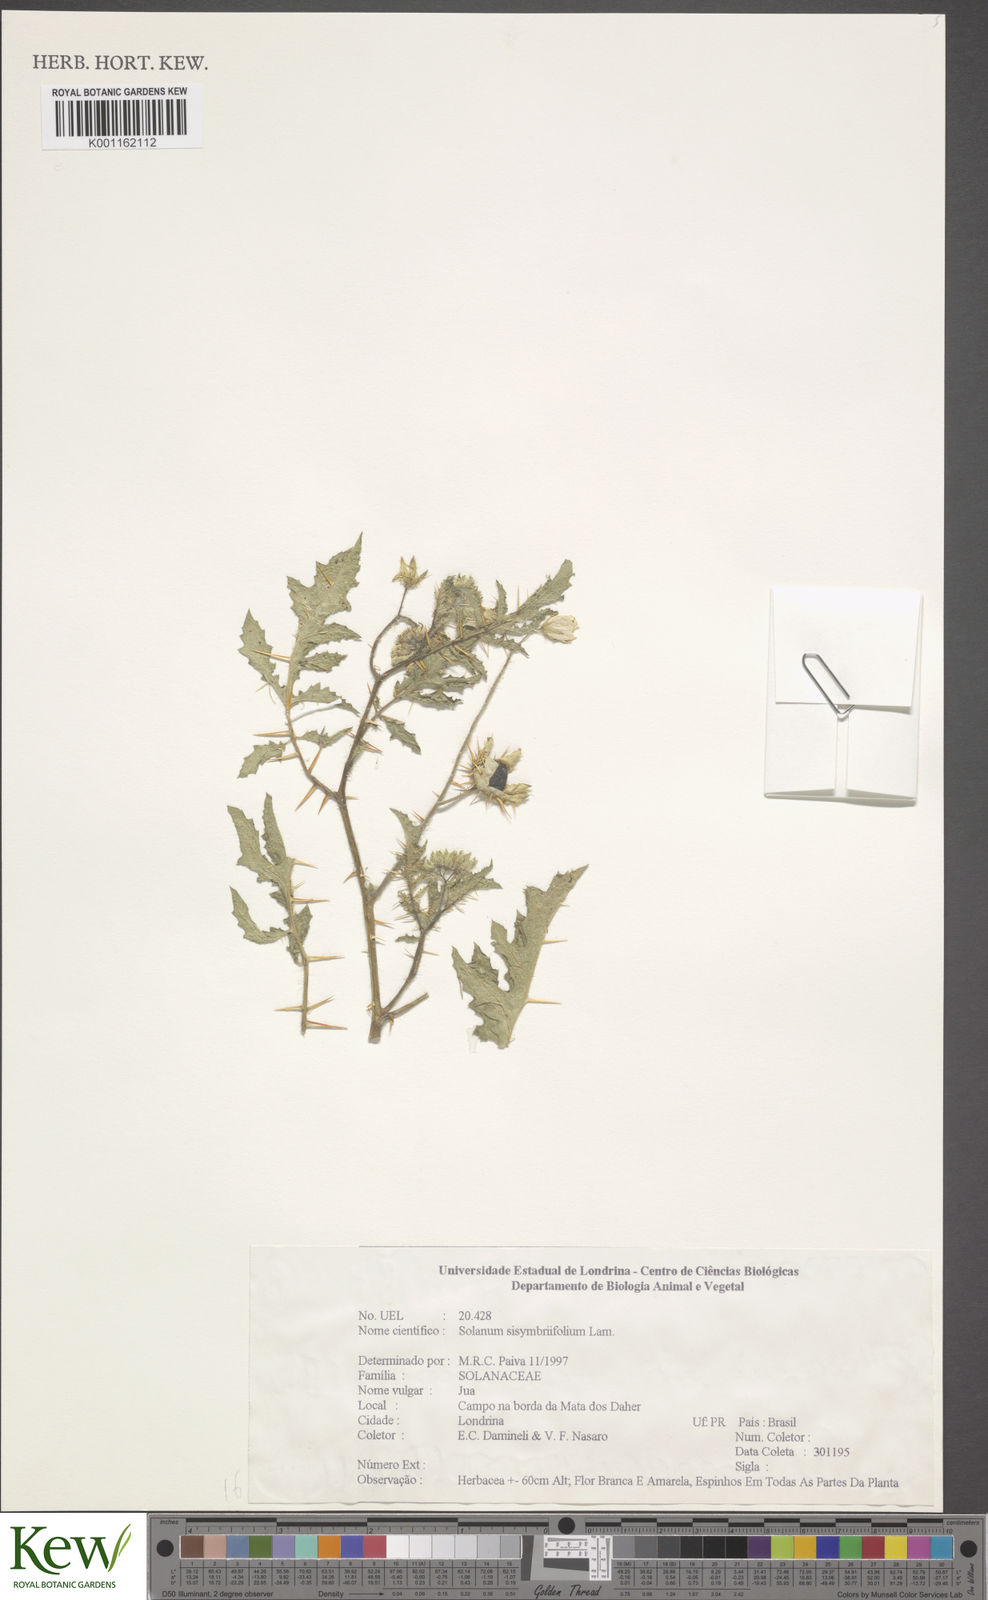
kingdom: Plantae
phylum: Tracheophyta
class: Magnoliopsida
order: Solanales
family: Solanaceae
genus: Solanum
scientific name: Solanum sisymbriifolium
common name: Red buffalo-bur
